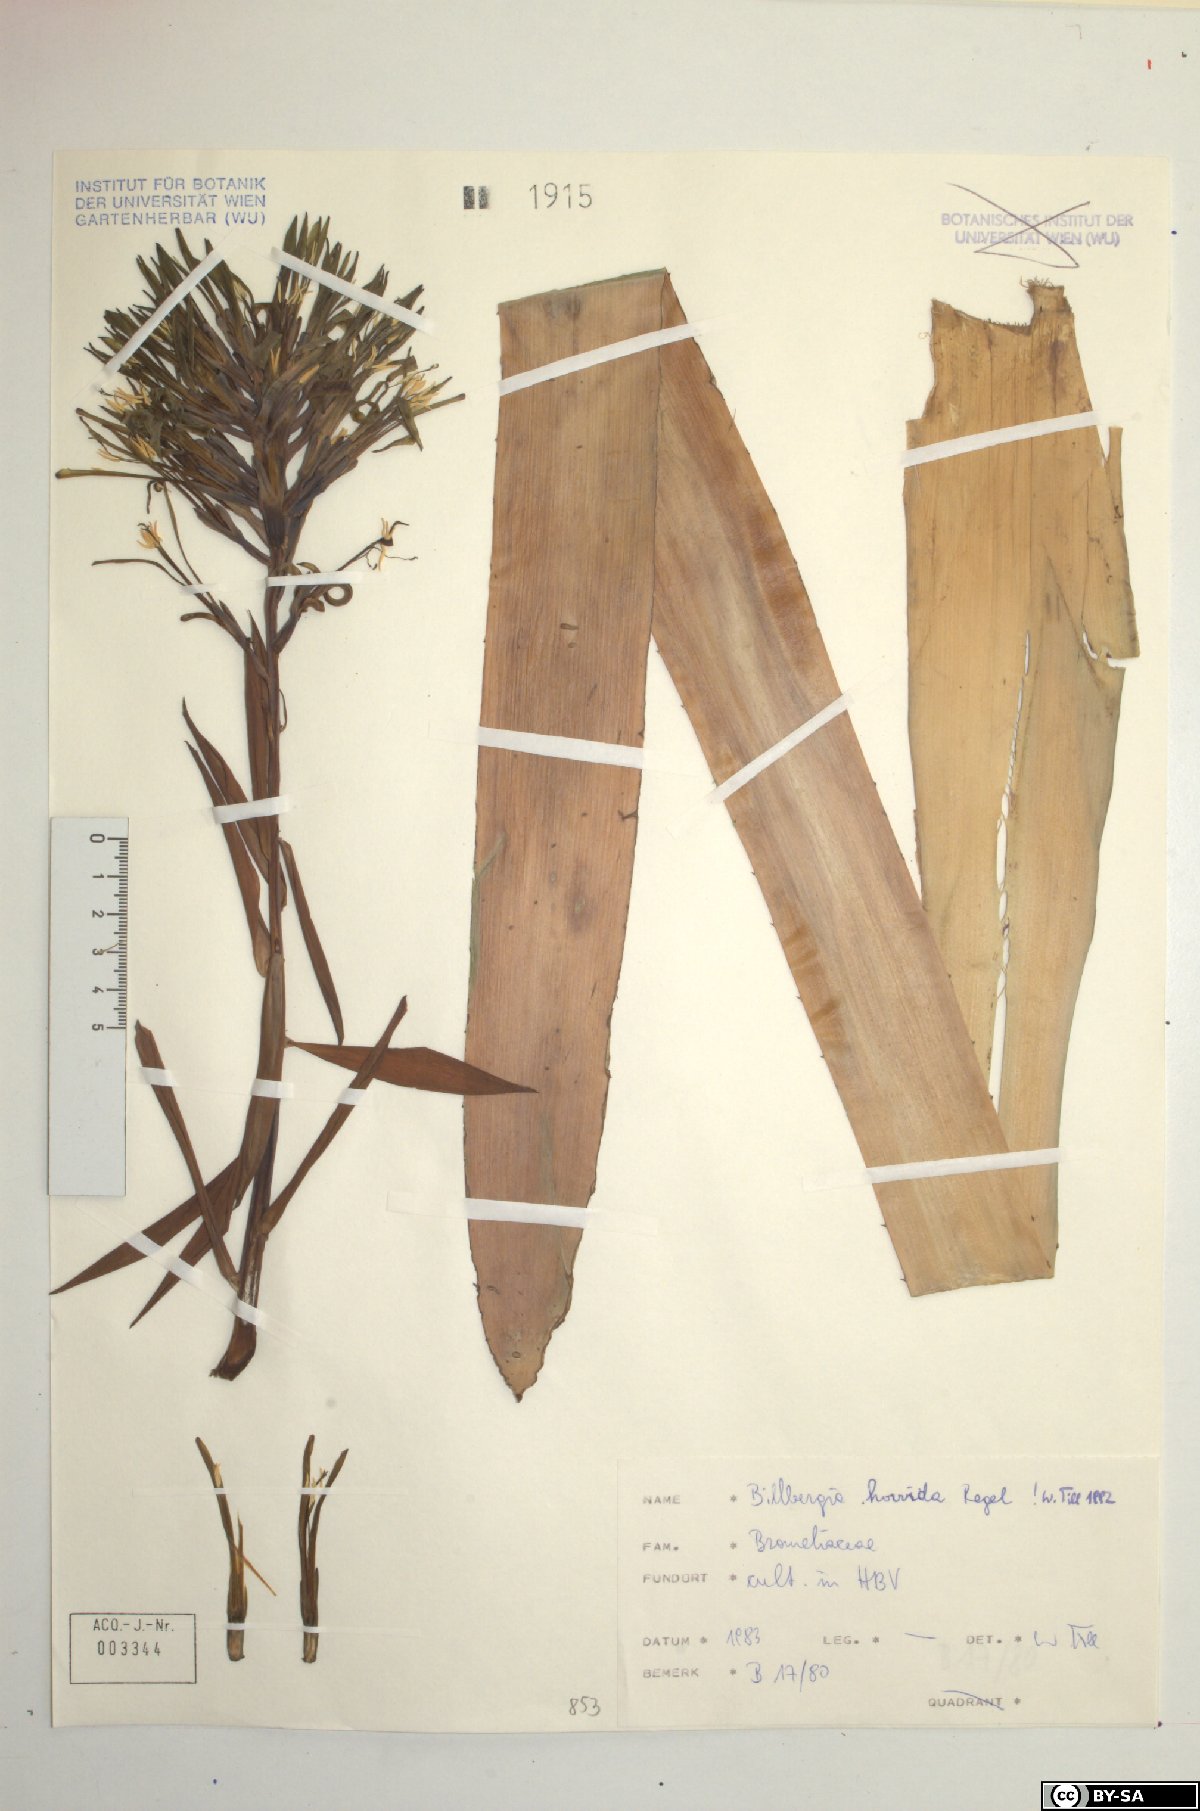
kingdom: Plantae
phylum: Tracheophyta
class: Liliopsida
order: Poales
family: Bromeliaceae
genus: Billbergia
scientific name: Billbergia horrida
